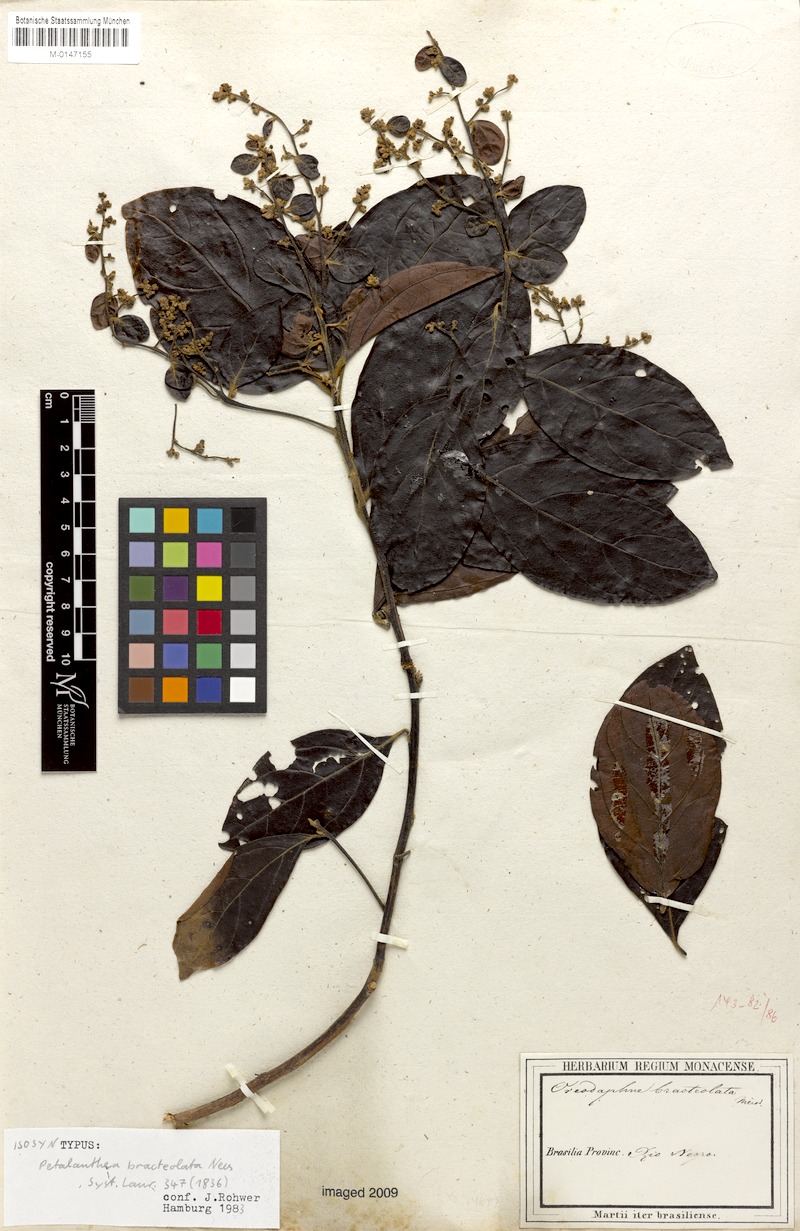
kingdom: Plantae
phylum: Tracheophyta
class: Magnoliopsida
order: Laurales
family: Lauraceae
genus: Ocotea
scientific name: Ocotea petalanthera
